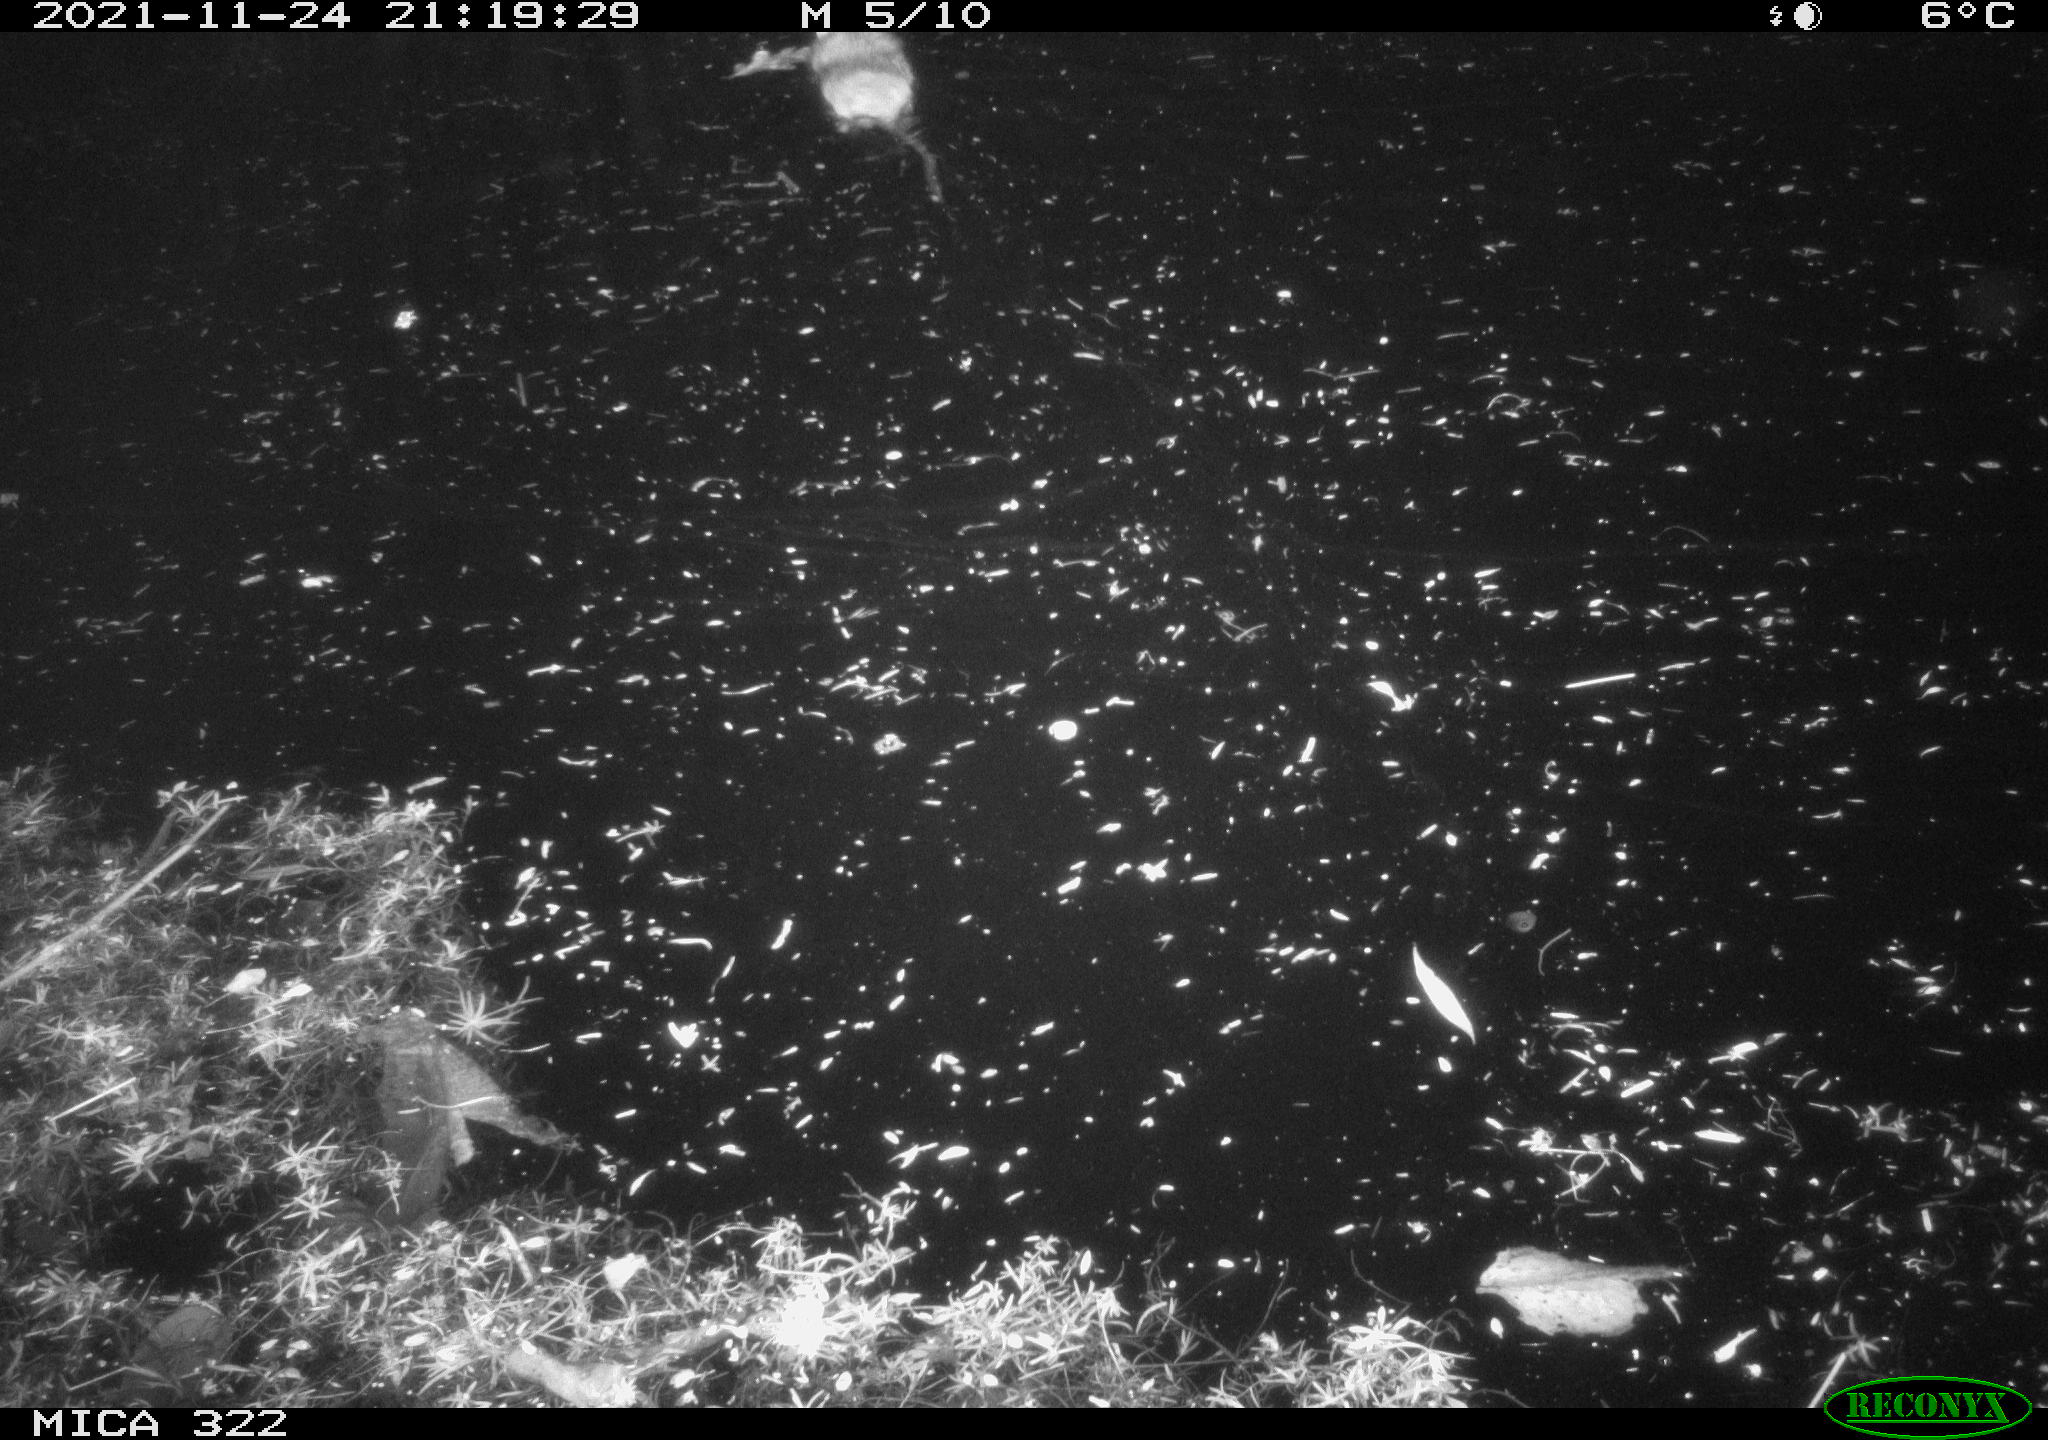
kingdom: Animalia
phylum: Chordata
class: Mammalia
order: Rodentia
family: Cricetidae
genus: Ondatra
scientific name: Ondatra zibethicus
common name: Muskrat
